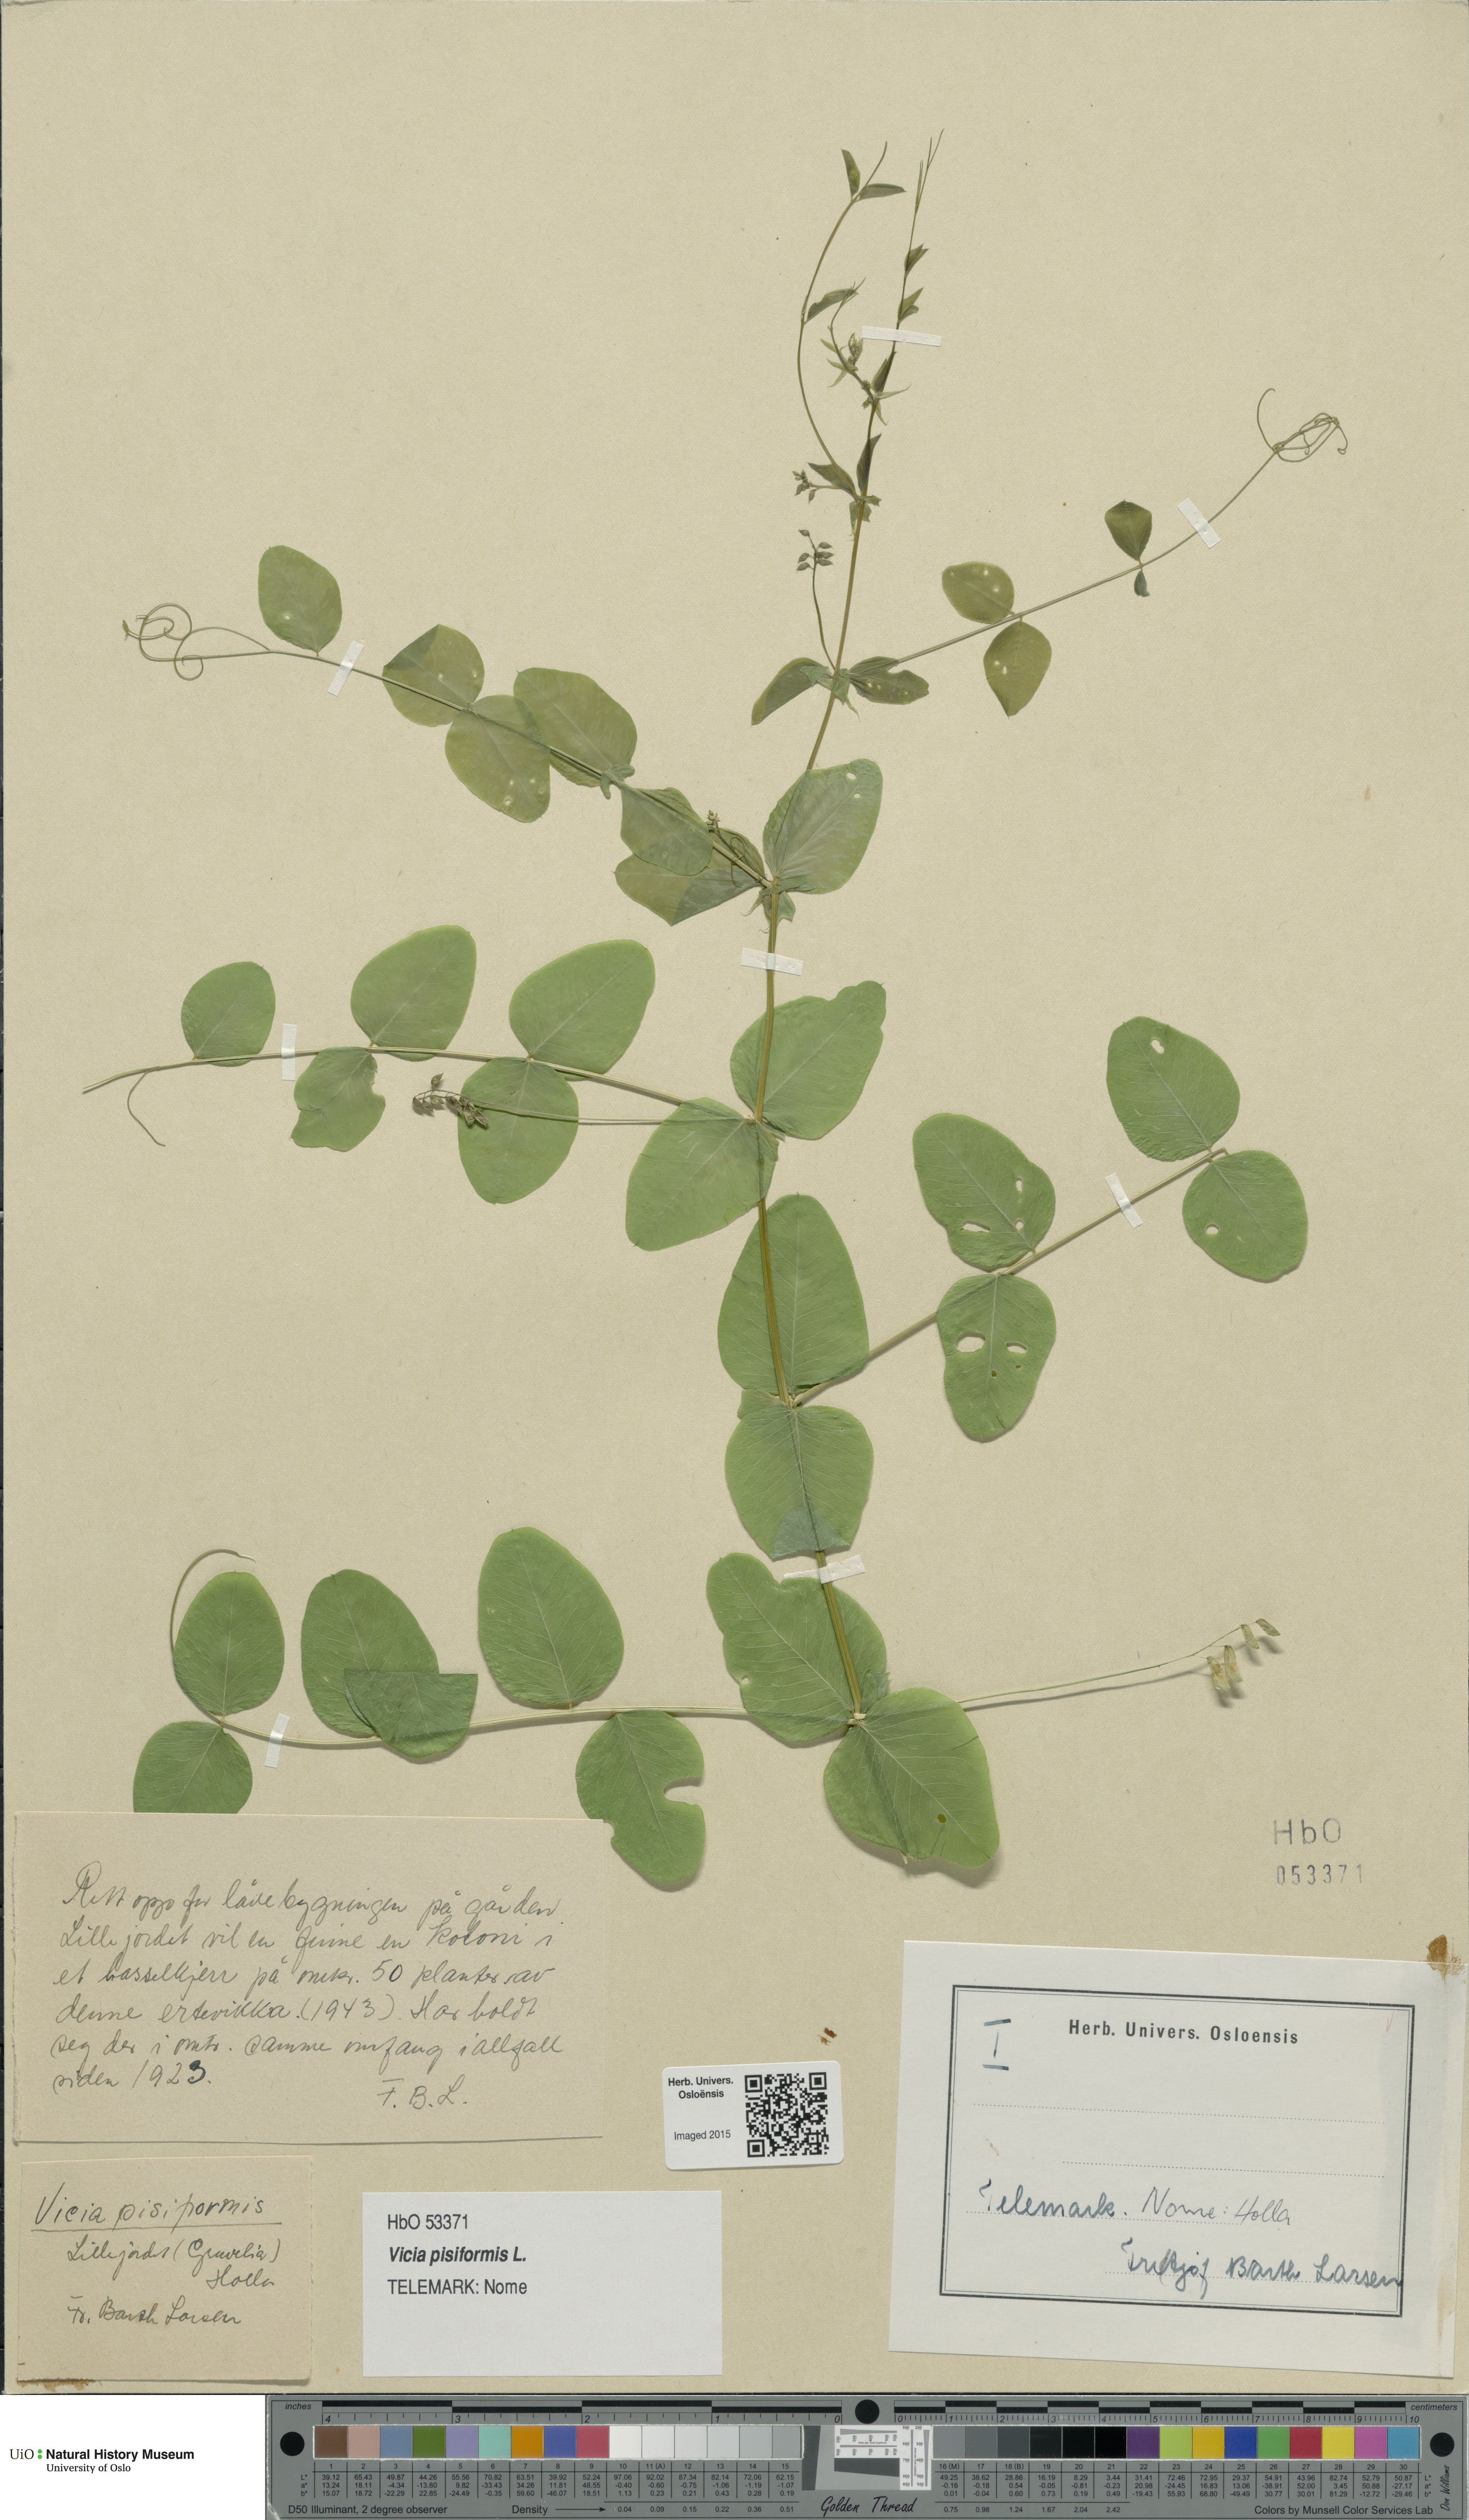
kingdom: Plantae
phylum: Tracheophyta
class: Magnoliopsida
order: Fabales
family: Fabaceae
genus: Vicia
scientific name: Vicia pisiformis
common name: Pale-flower vetch
